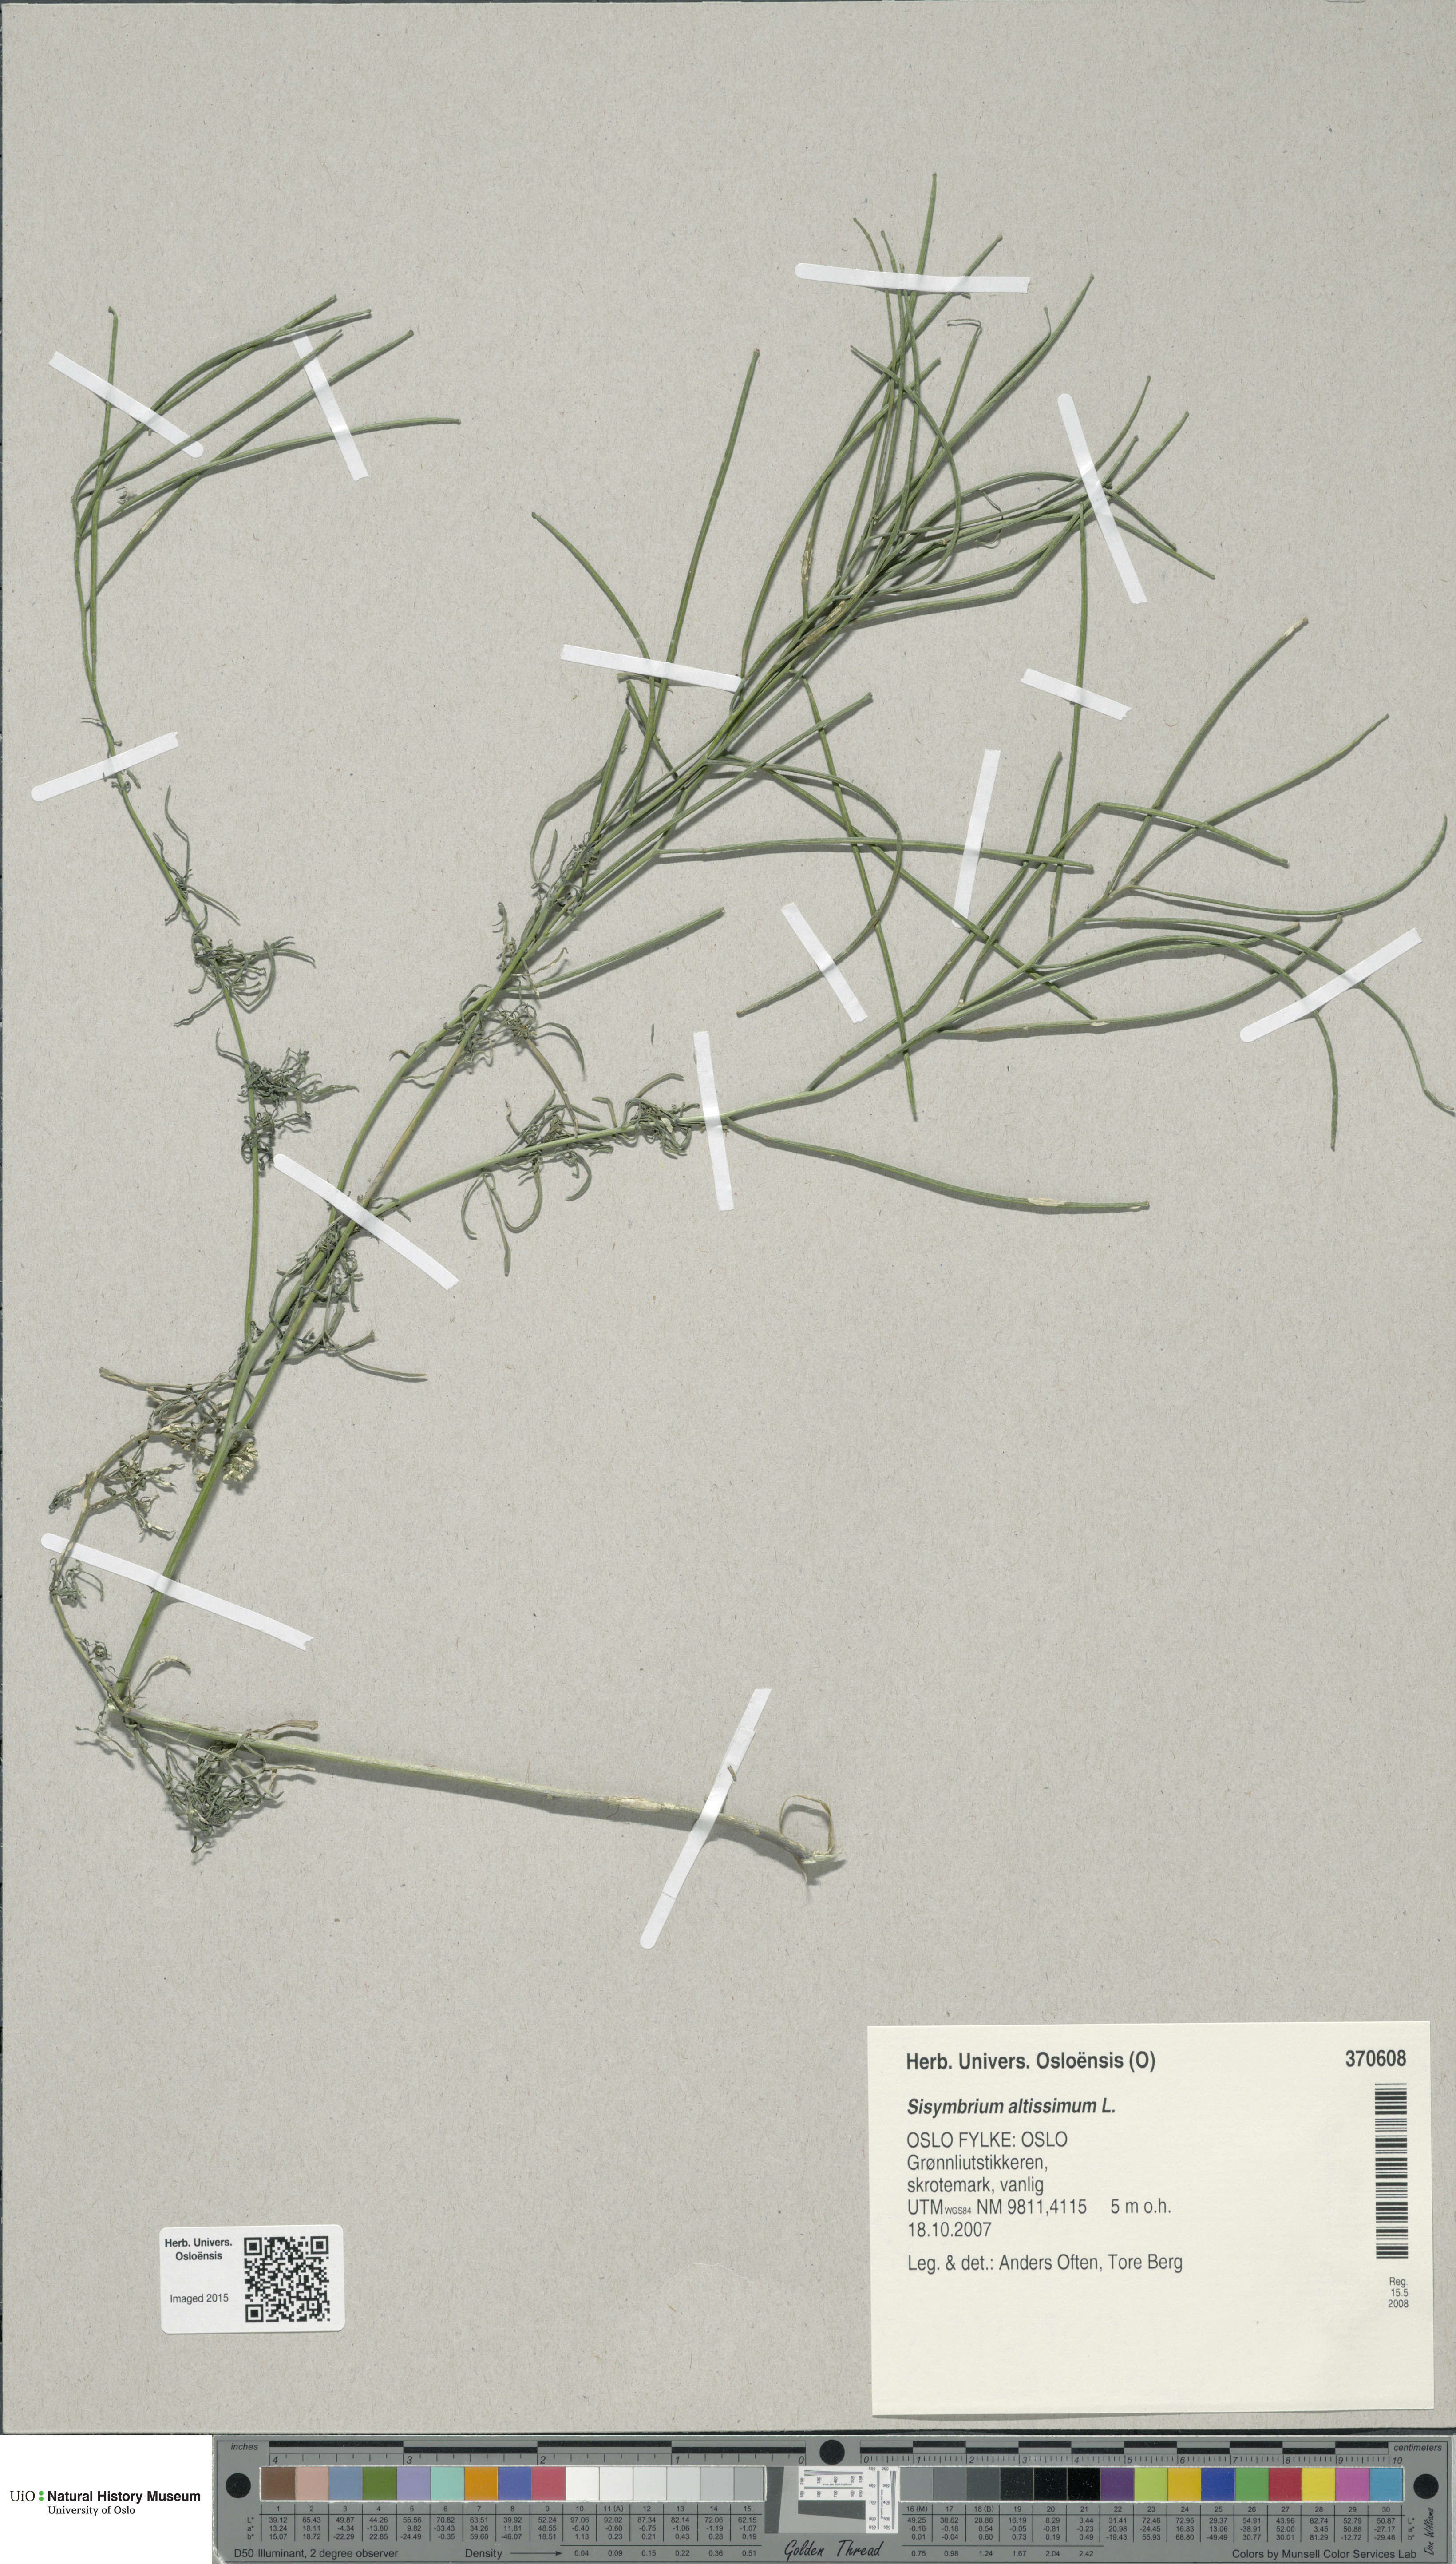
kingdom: Plantae
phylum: Tracheophyta
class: Magnoliopsida
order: Brassicales
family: Brassicaceae
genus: Sisymbrium
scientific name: Sisymbrium altissimum
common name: Tall rocket
